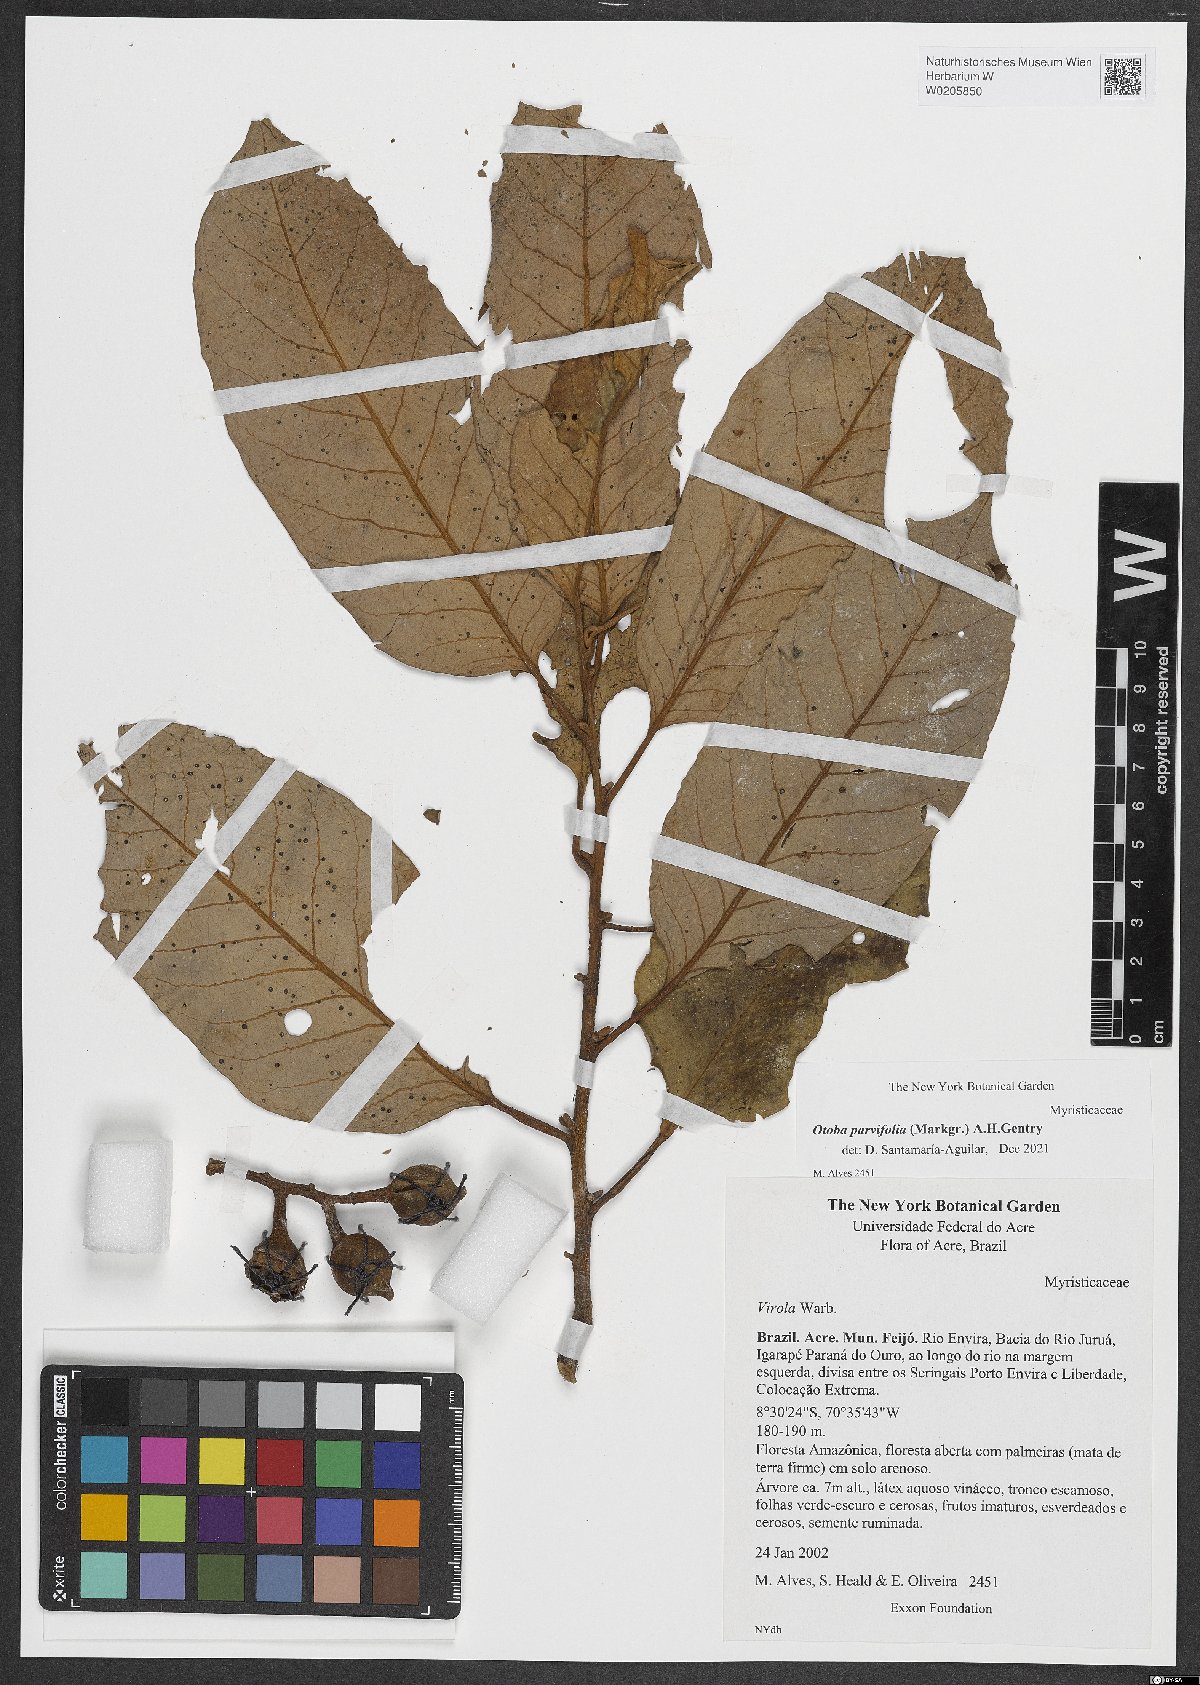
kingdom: Plantae
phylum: Tracheophyta
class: Magnoliopsida
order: Magnoliales
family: Myristicaceae
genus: Otoba
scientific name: Otoba parvifolia
